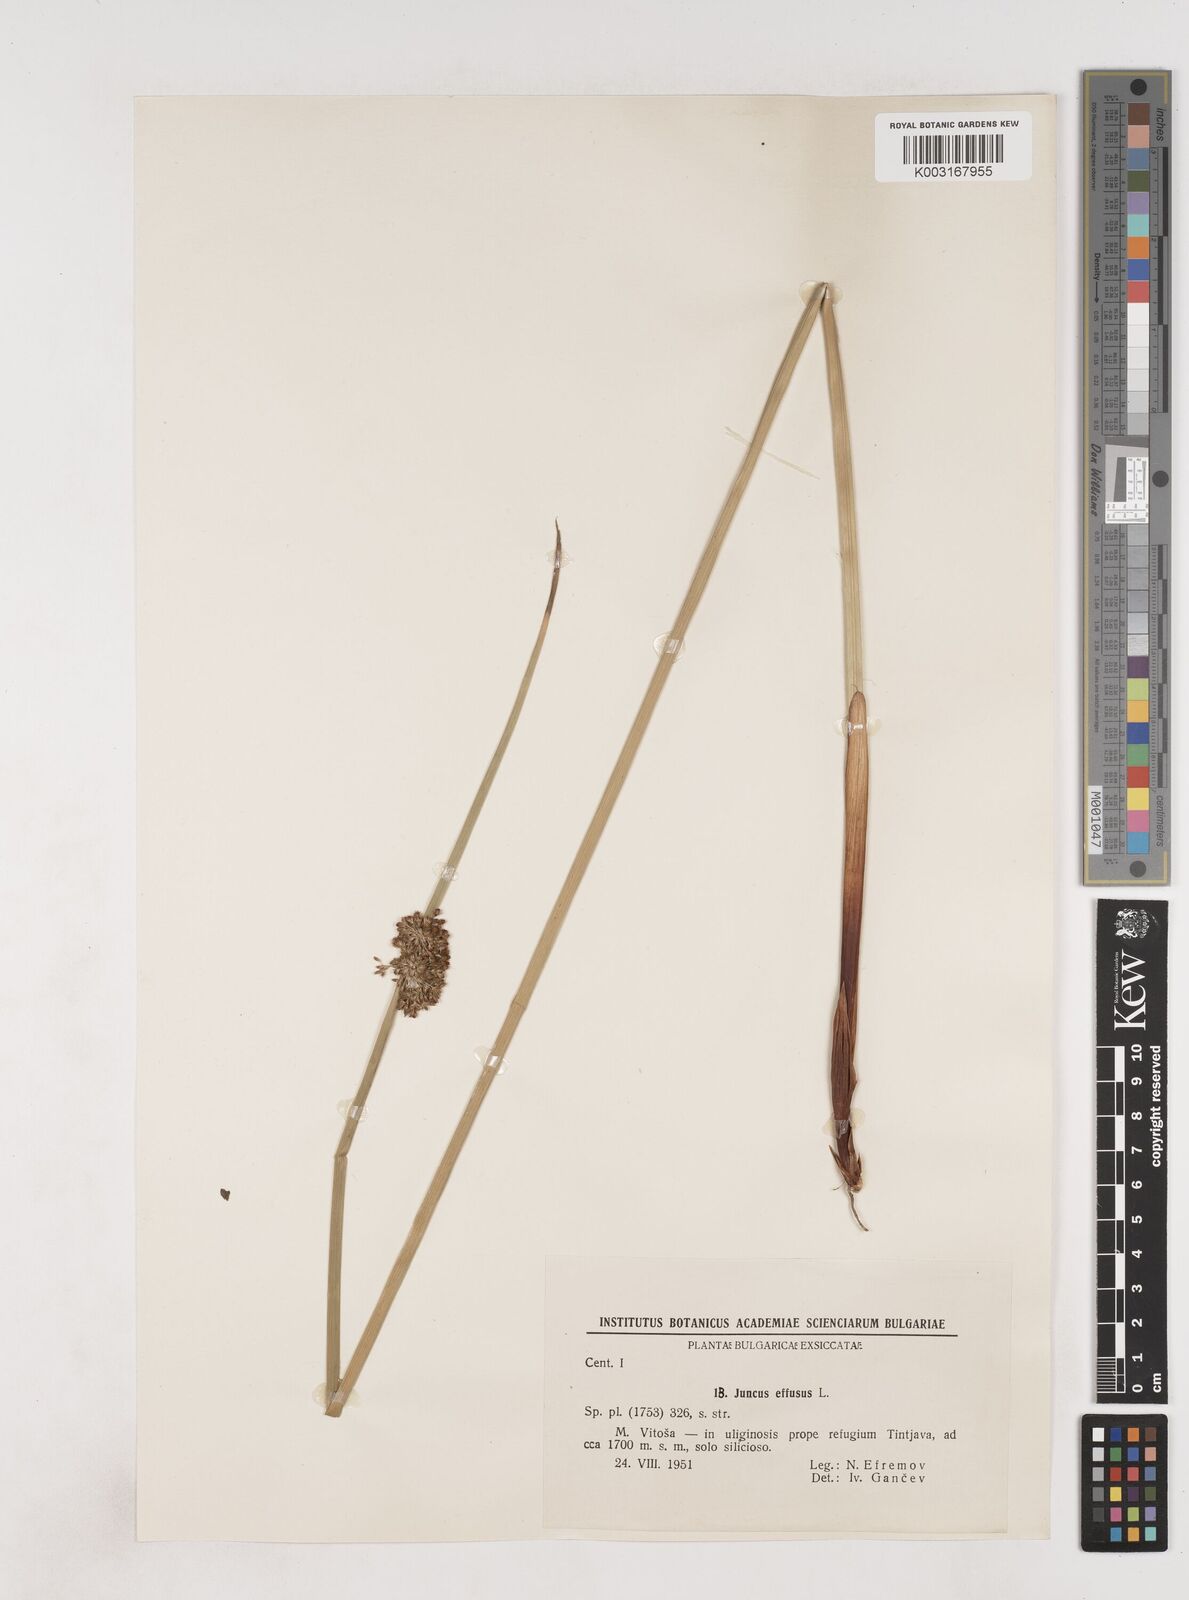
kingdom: Plantae
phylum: Tracheophyta
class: Liliopsida
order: Poales
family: Juncaceae
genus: Juncus
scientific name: Juncus effusus
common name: Soft rush
